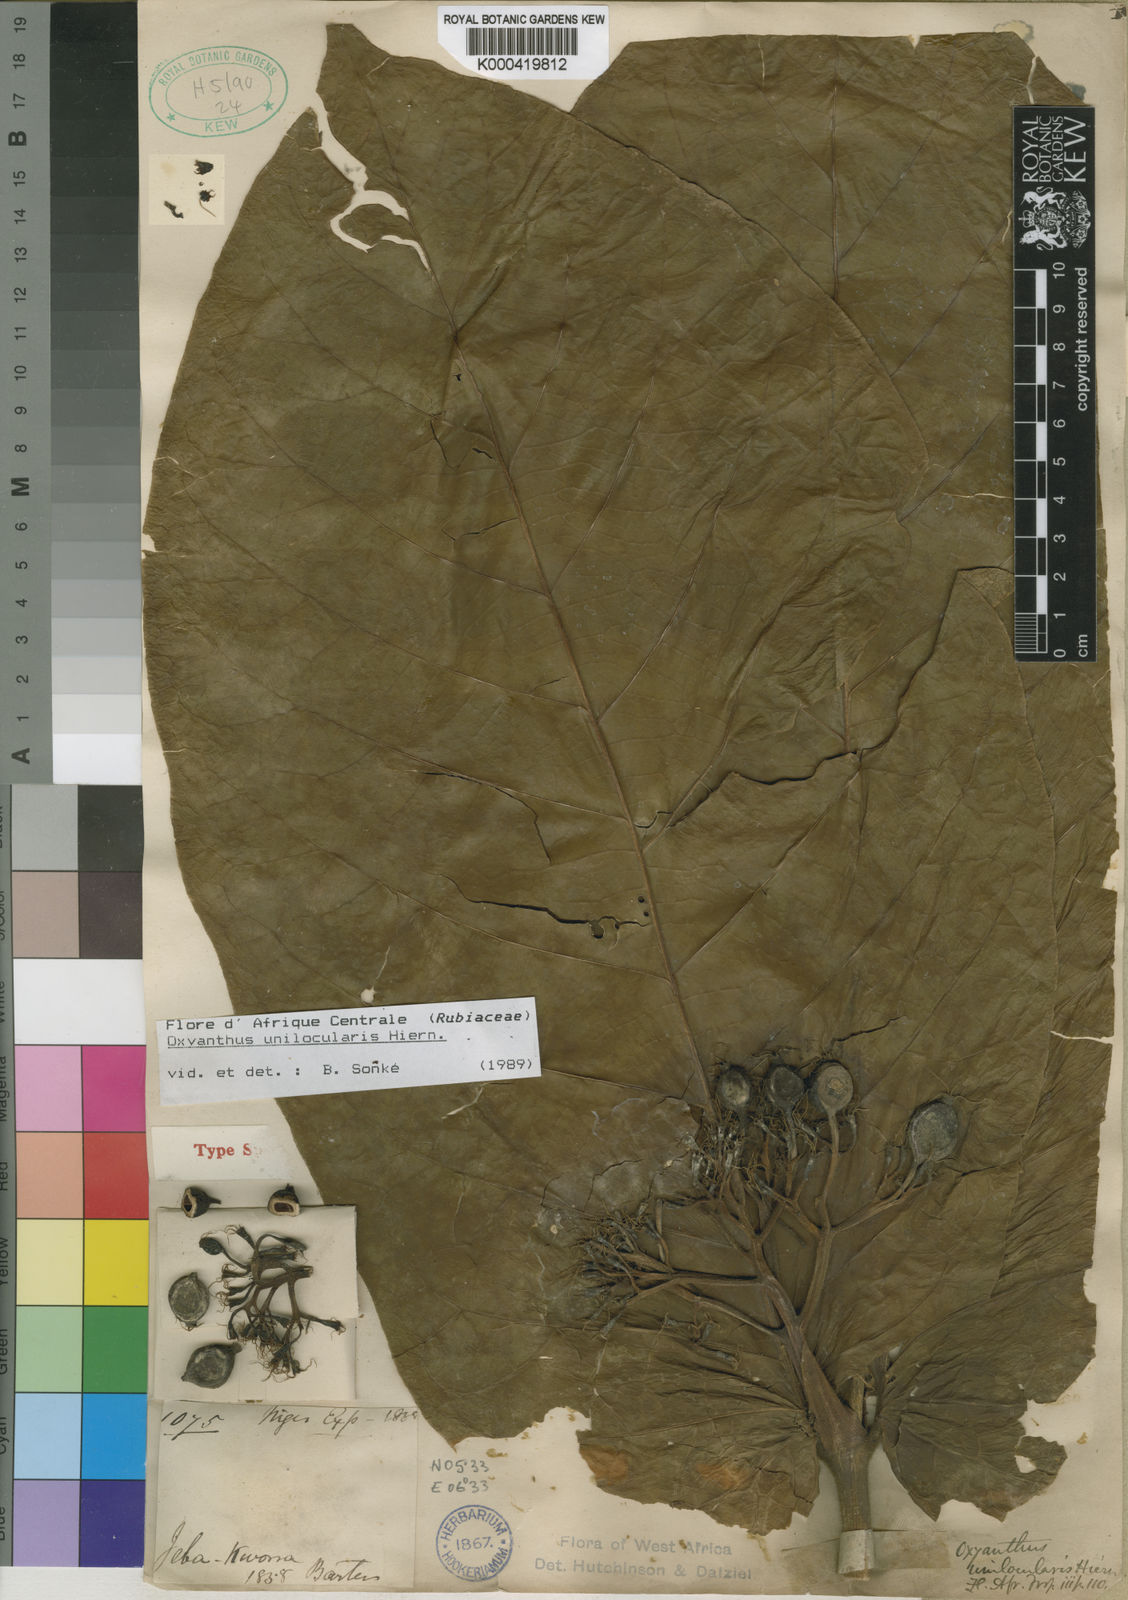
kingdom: Plantae
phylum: Tracheophyta
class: Magnoliopsida
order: Gentianales
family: Rubiaceae
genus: Oxyanthus
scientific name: Oxyanthus unilocularis
